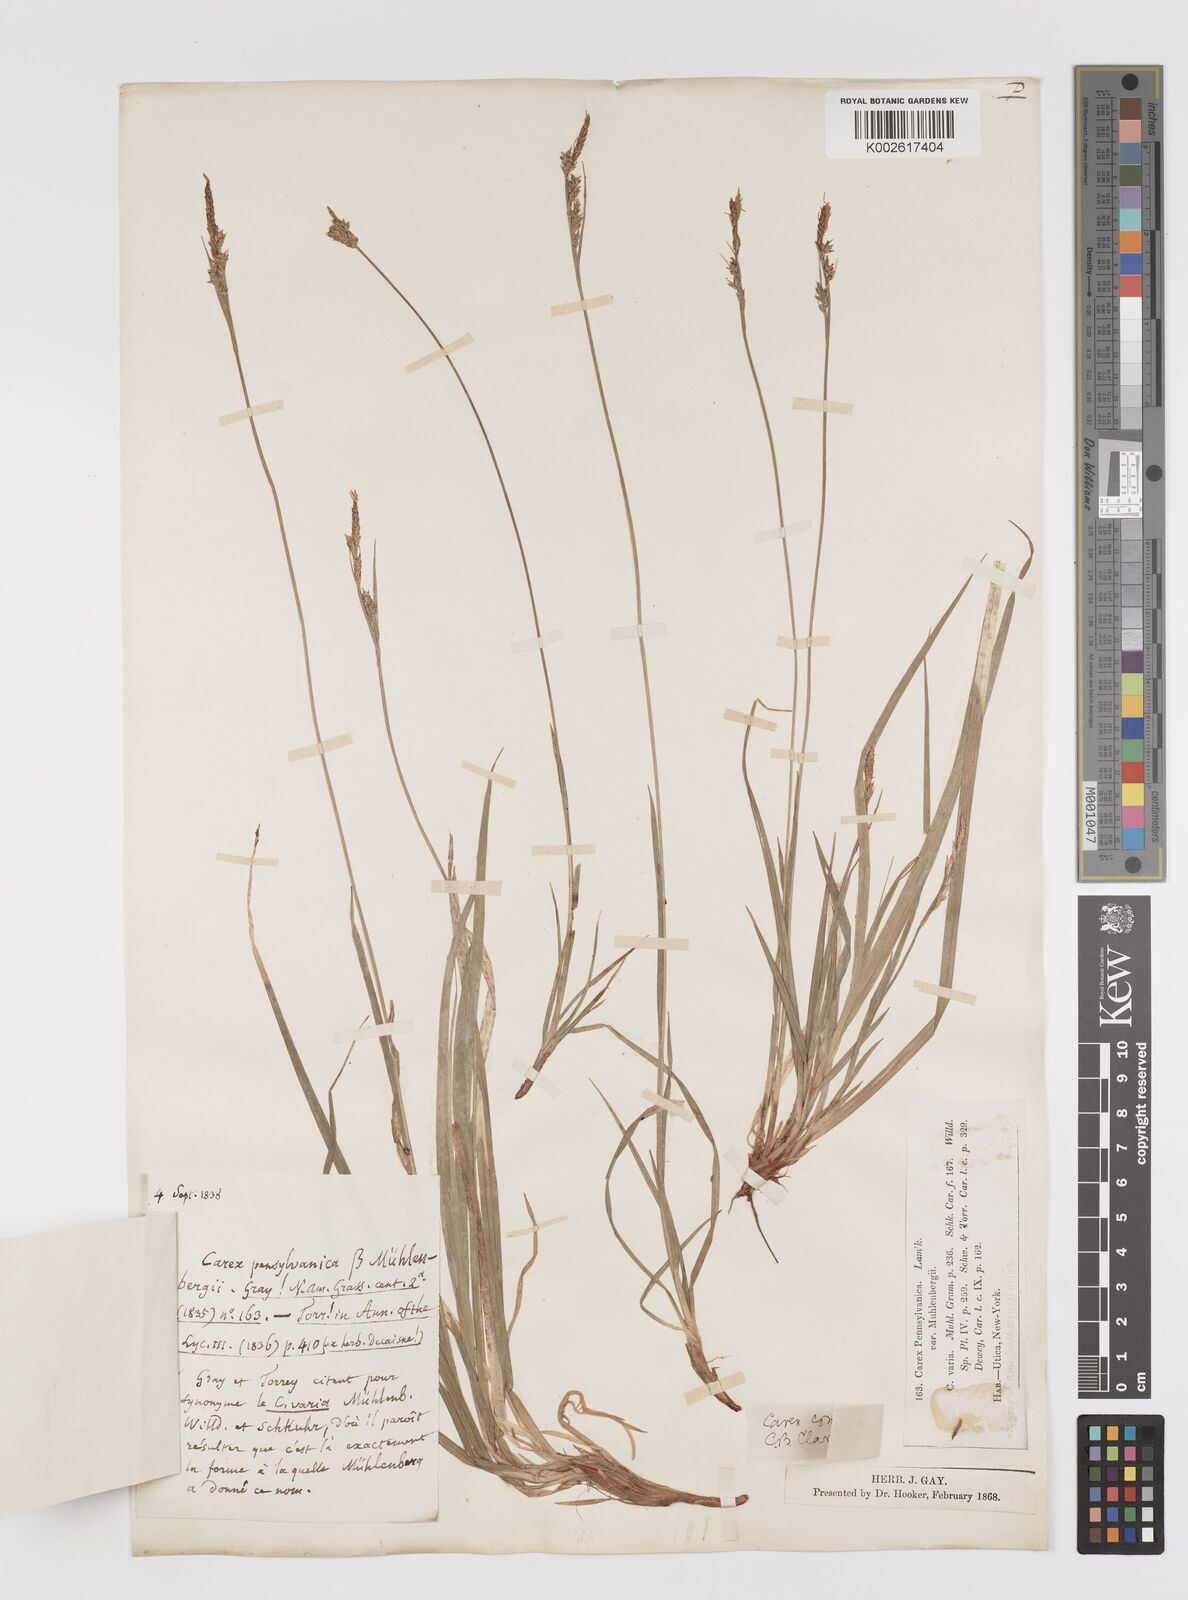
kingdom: Plantae
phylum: Tracheophyta
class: Liliopsida
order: Poales
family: Cyperaceae
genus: Carex
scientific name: Carex communis
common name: Colonial oak sedge
